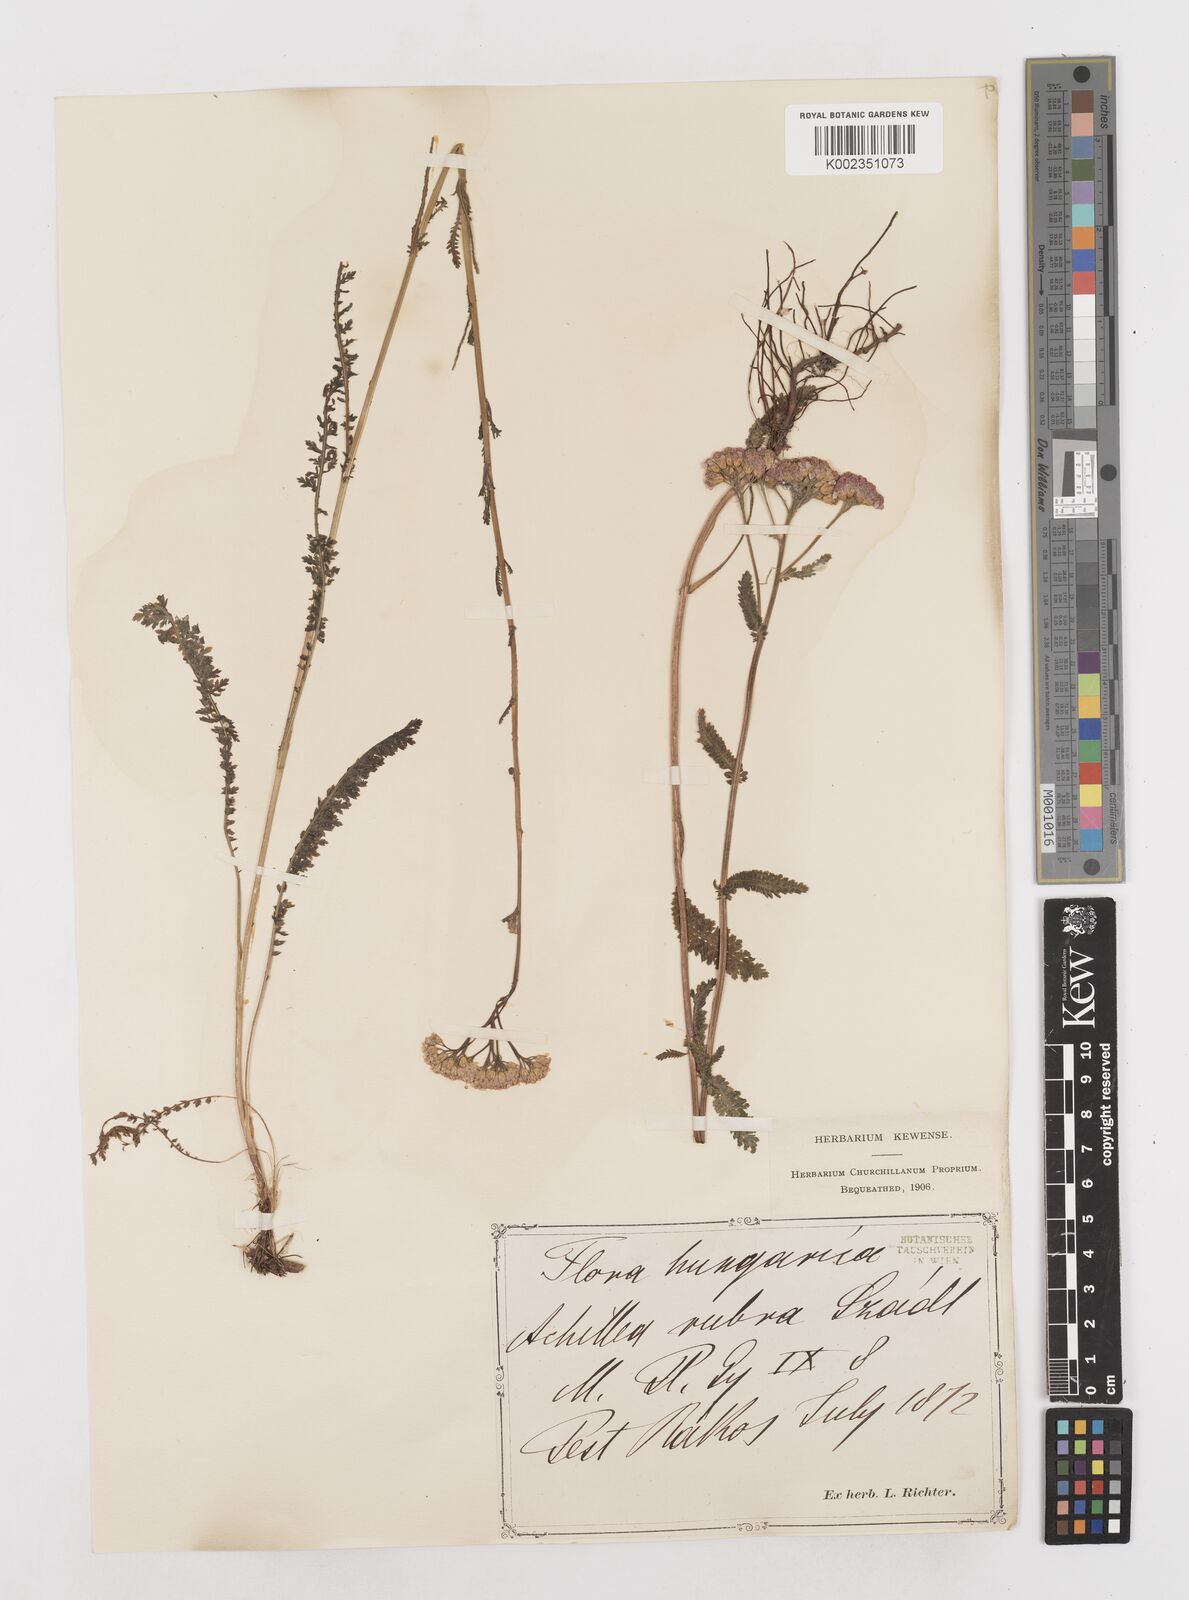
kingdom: Plantae
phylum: Tracheophyta
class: Magnoliopsida
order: Asterales
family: Asteraceae
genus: Achillea
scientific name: Achillea millefolium
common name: Yarrow
